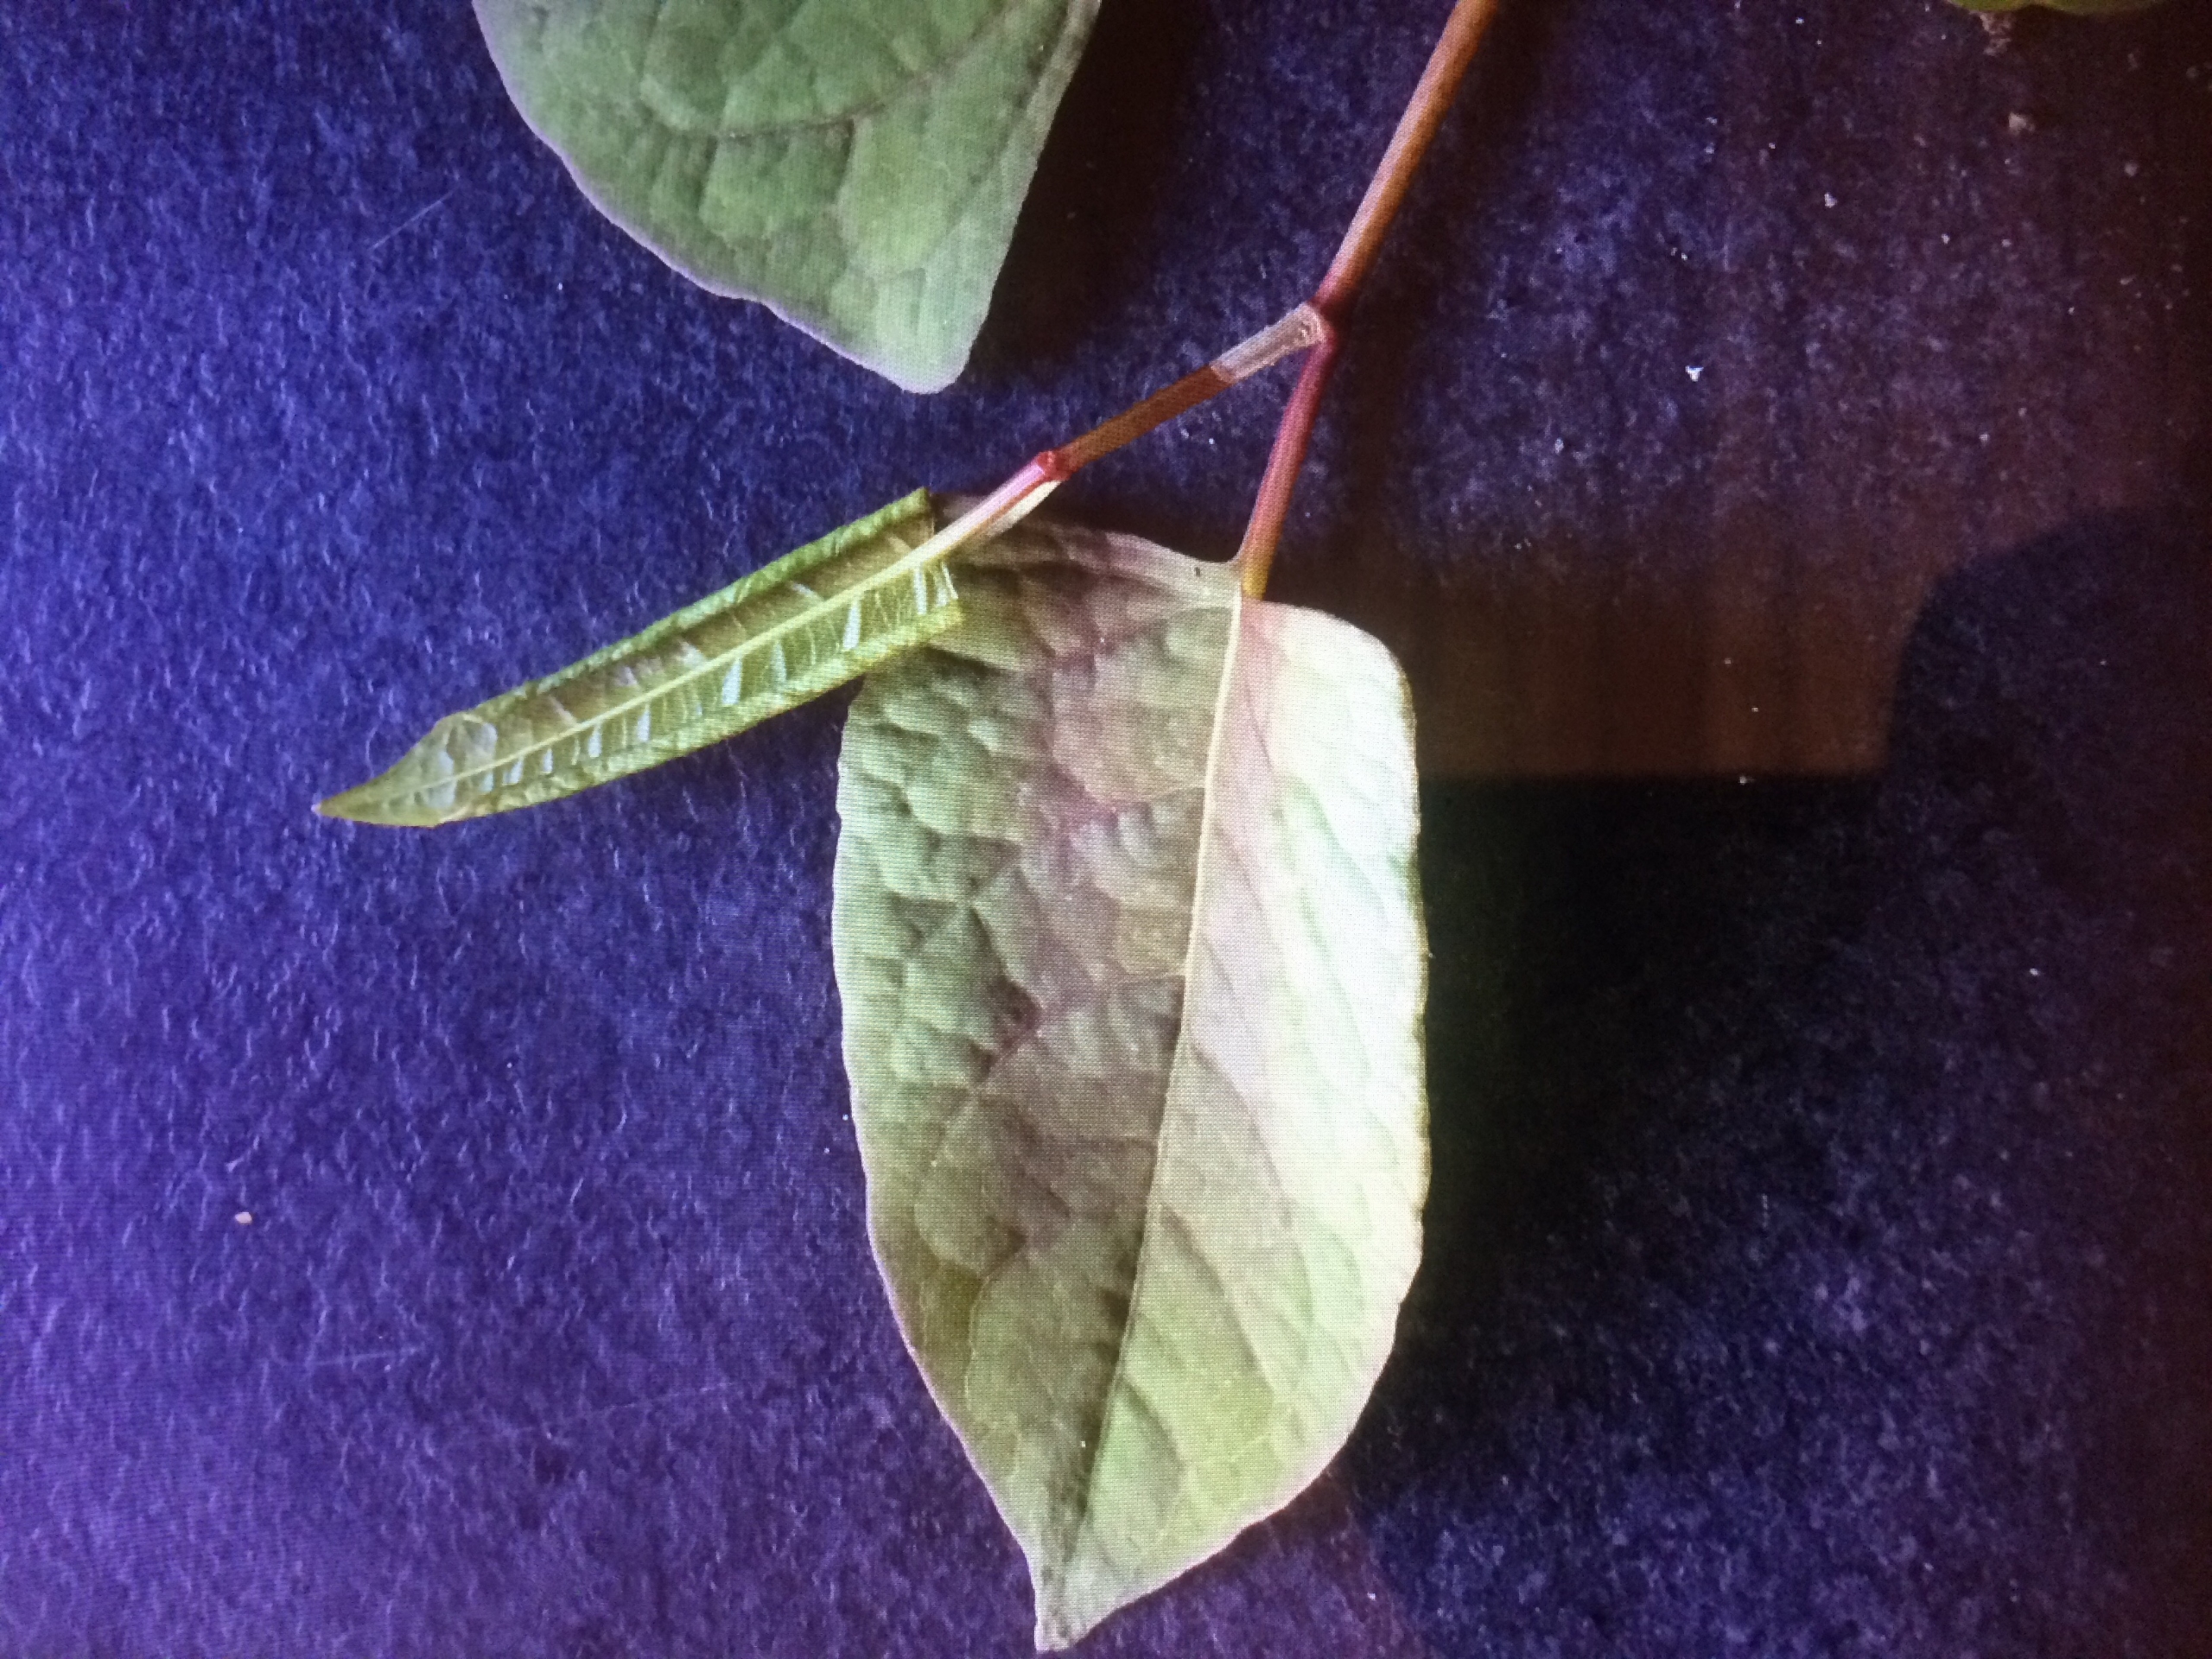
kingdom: Plantae
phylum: Tracheophyta
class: Magnoliopsida
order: Caryophyllales
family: Polygonaceae
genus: Reynoutria
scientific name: Reynoutria japonica
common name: Japan-pileurt
